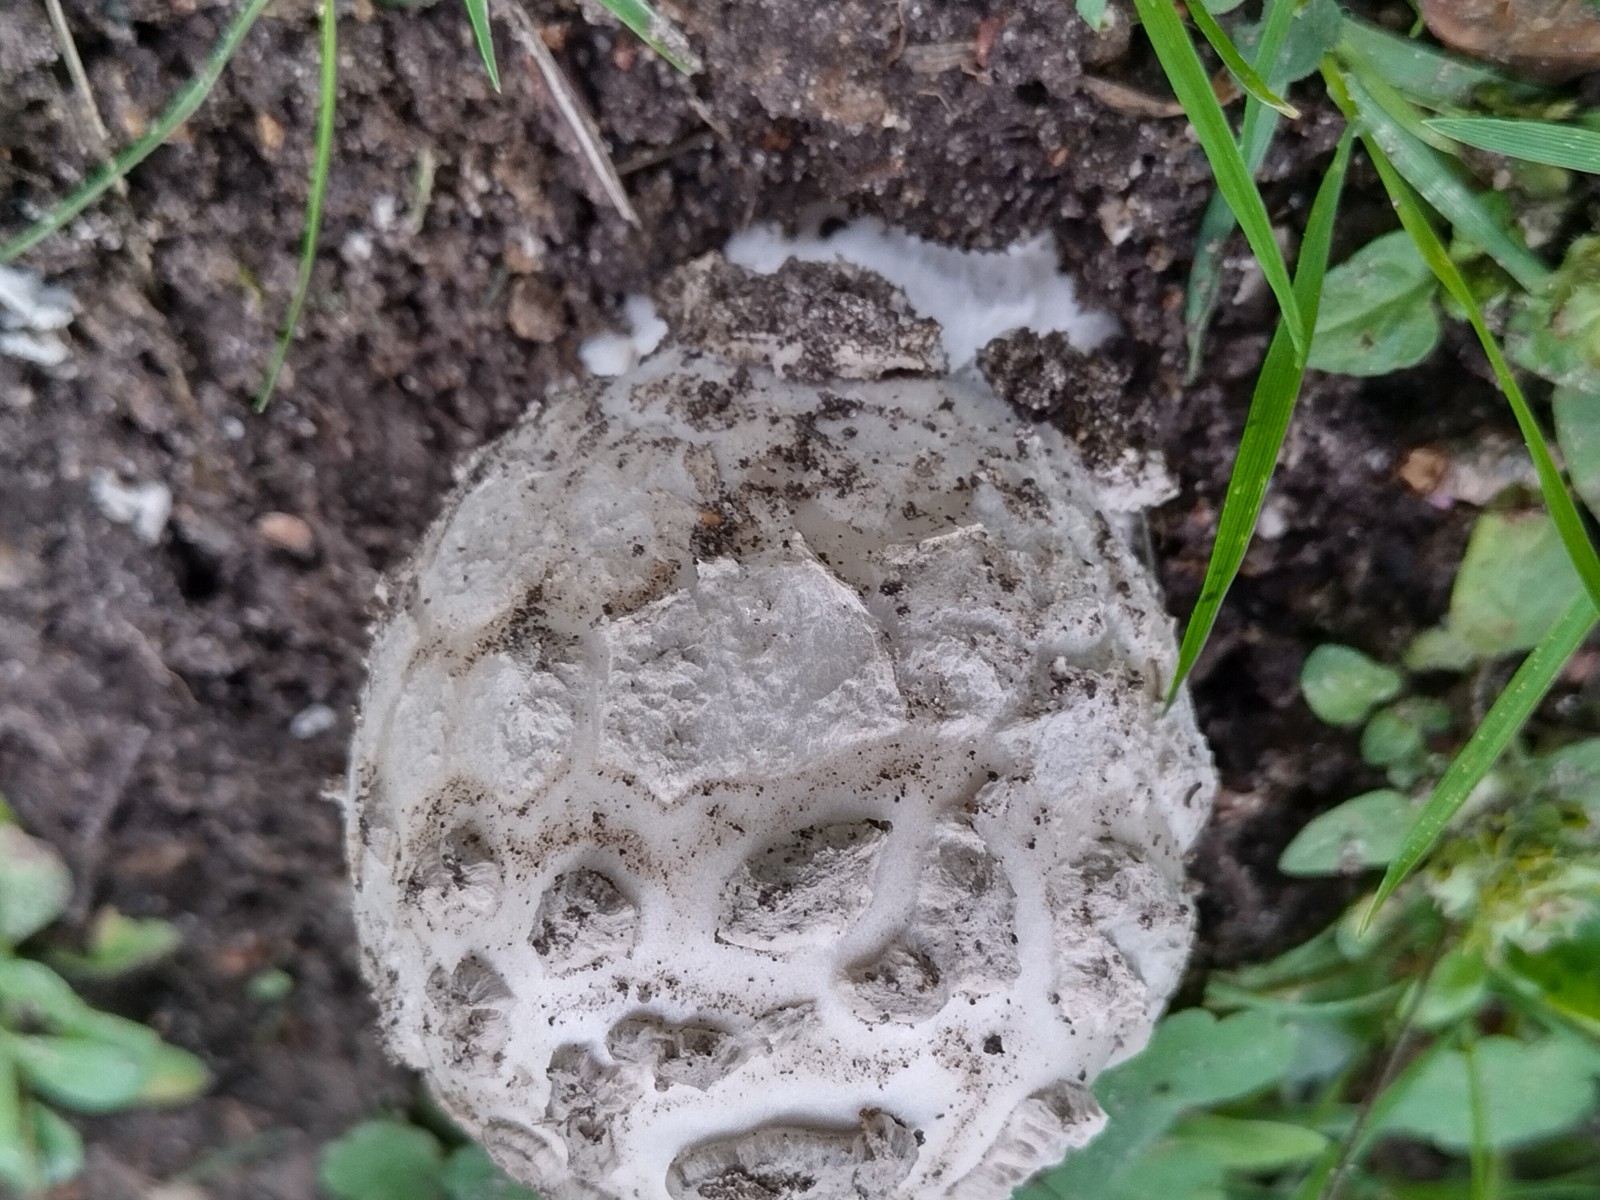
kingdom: Fungi
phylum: Basidiomycota
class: Agaricomycetes
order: Agaricales
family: Amanitaceae
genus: Amanita
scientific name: Amanita
